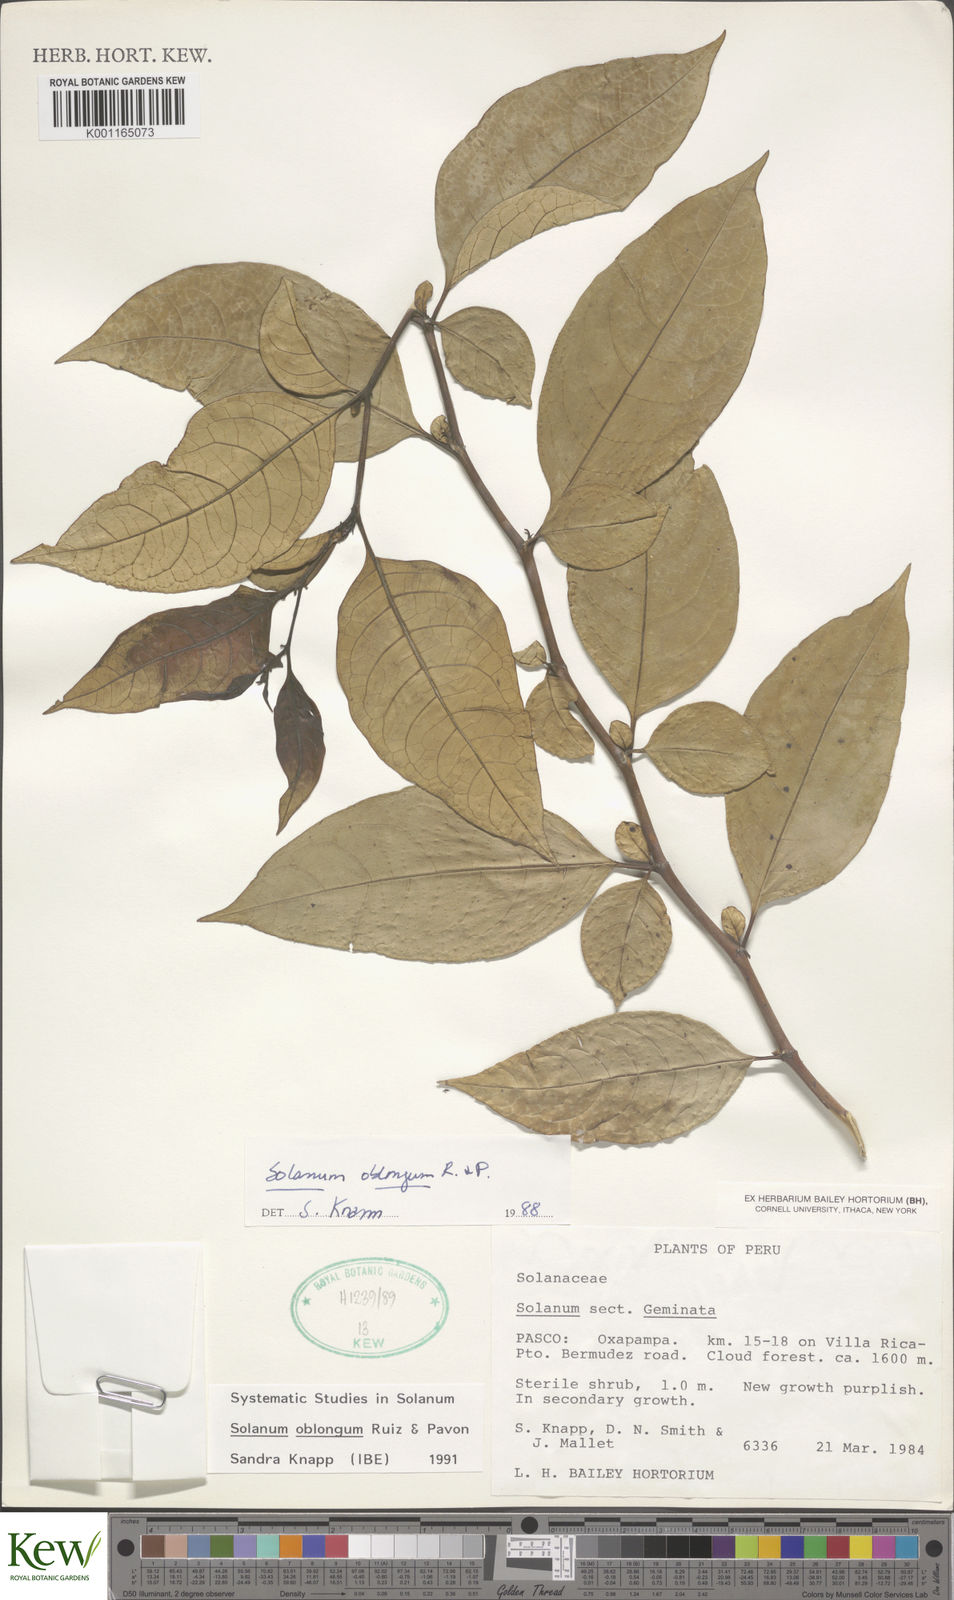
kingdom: Plantae
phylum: Tracheophyta
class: Magnoliopsida
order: Solanales
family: Solanaceae
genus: Solanum
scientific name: Solanum oblongum
